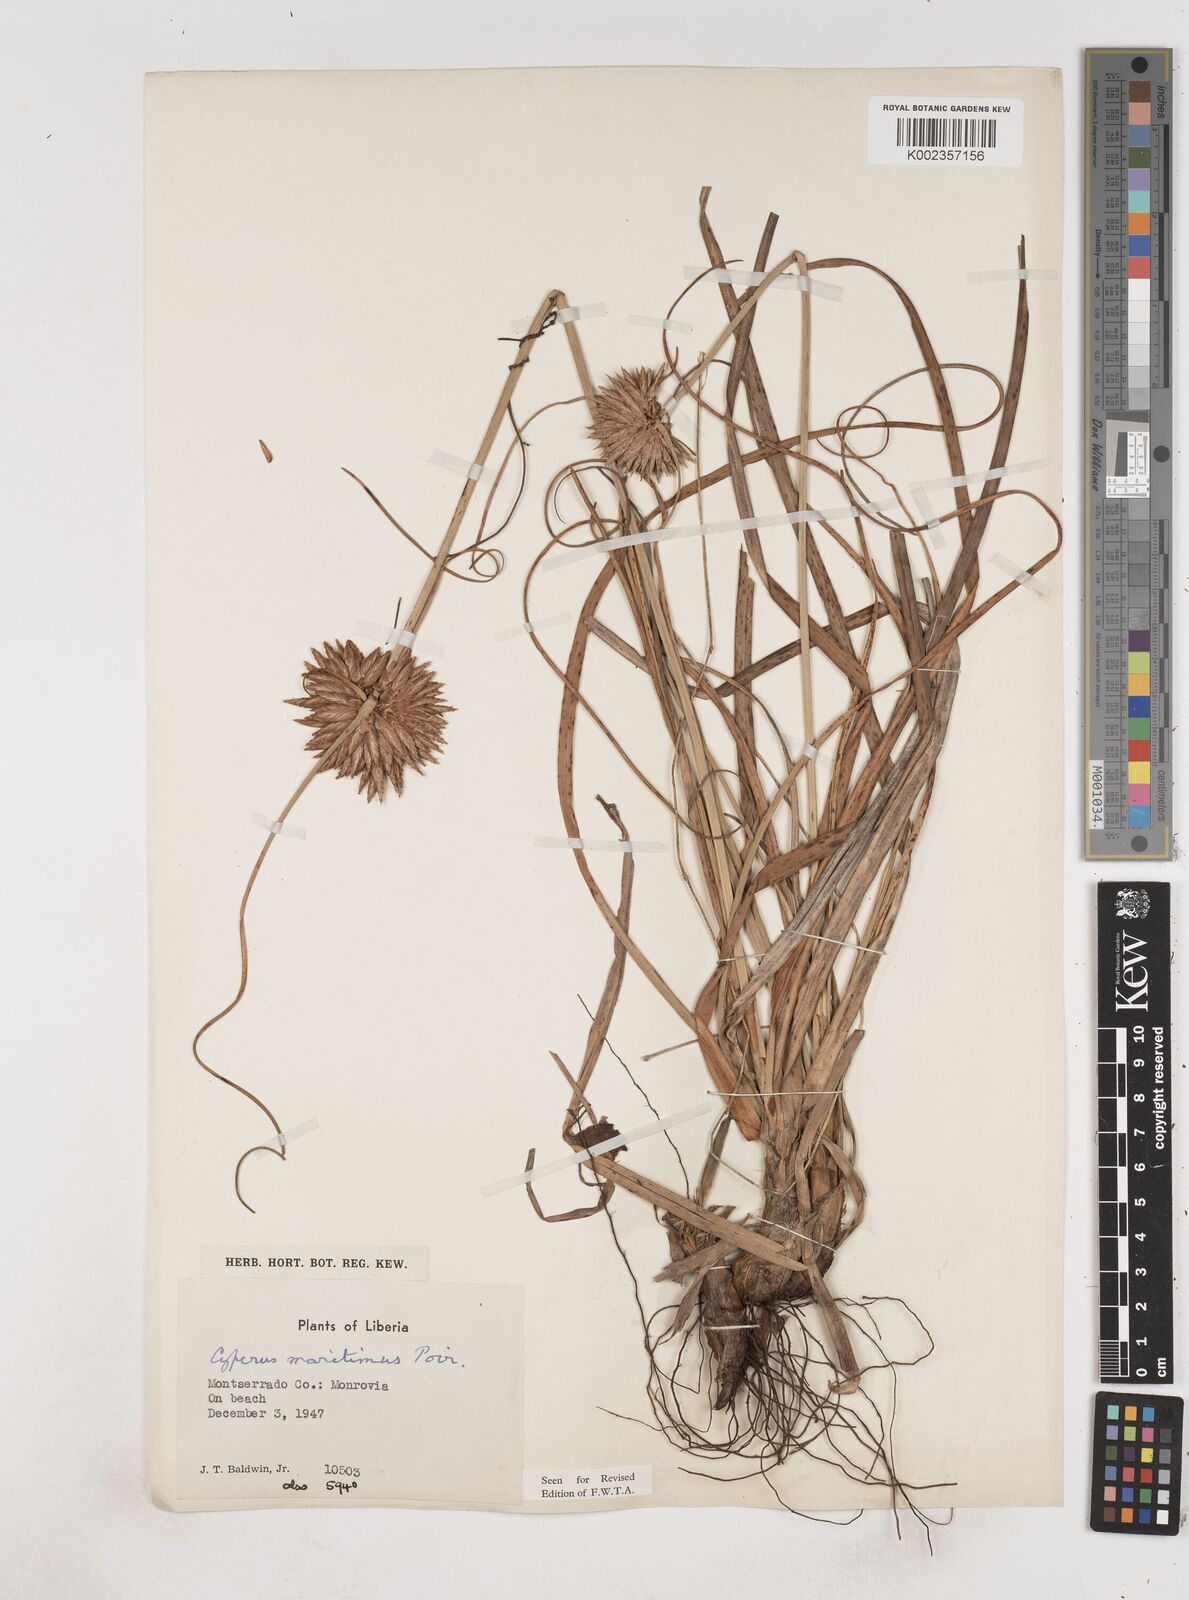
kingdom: Plantae
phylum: Tracheophyta
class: Liliopsida
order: Poales
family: Cyperaceae
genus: Cyperus
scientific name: Cyperus crassipes
